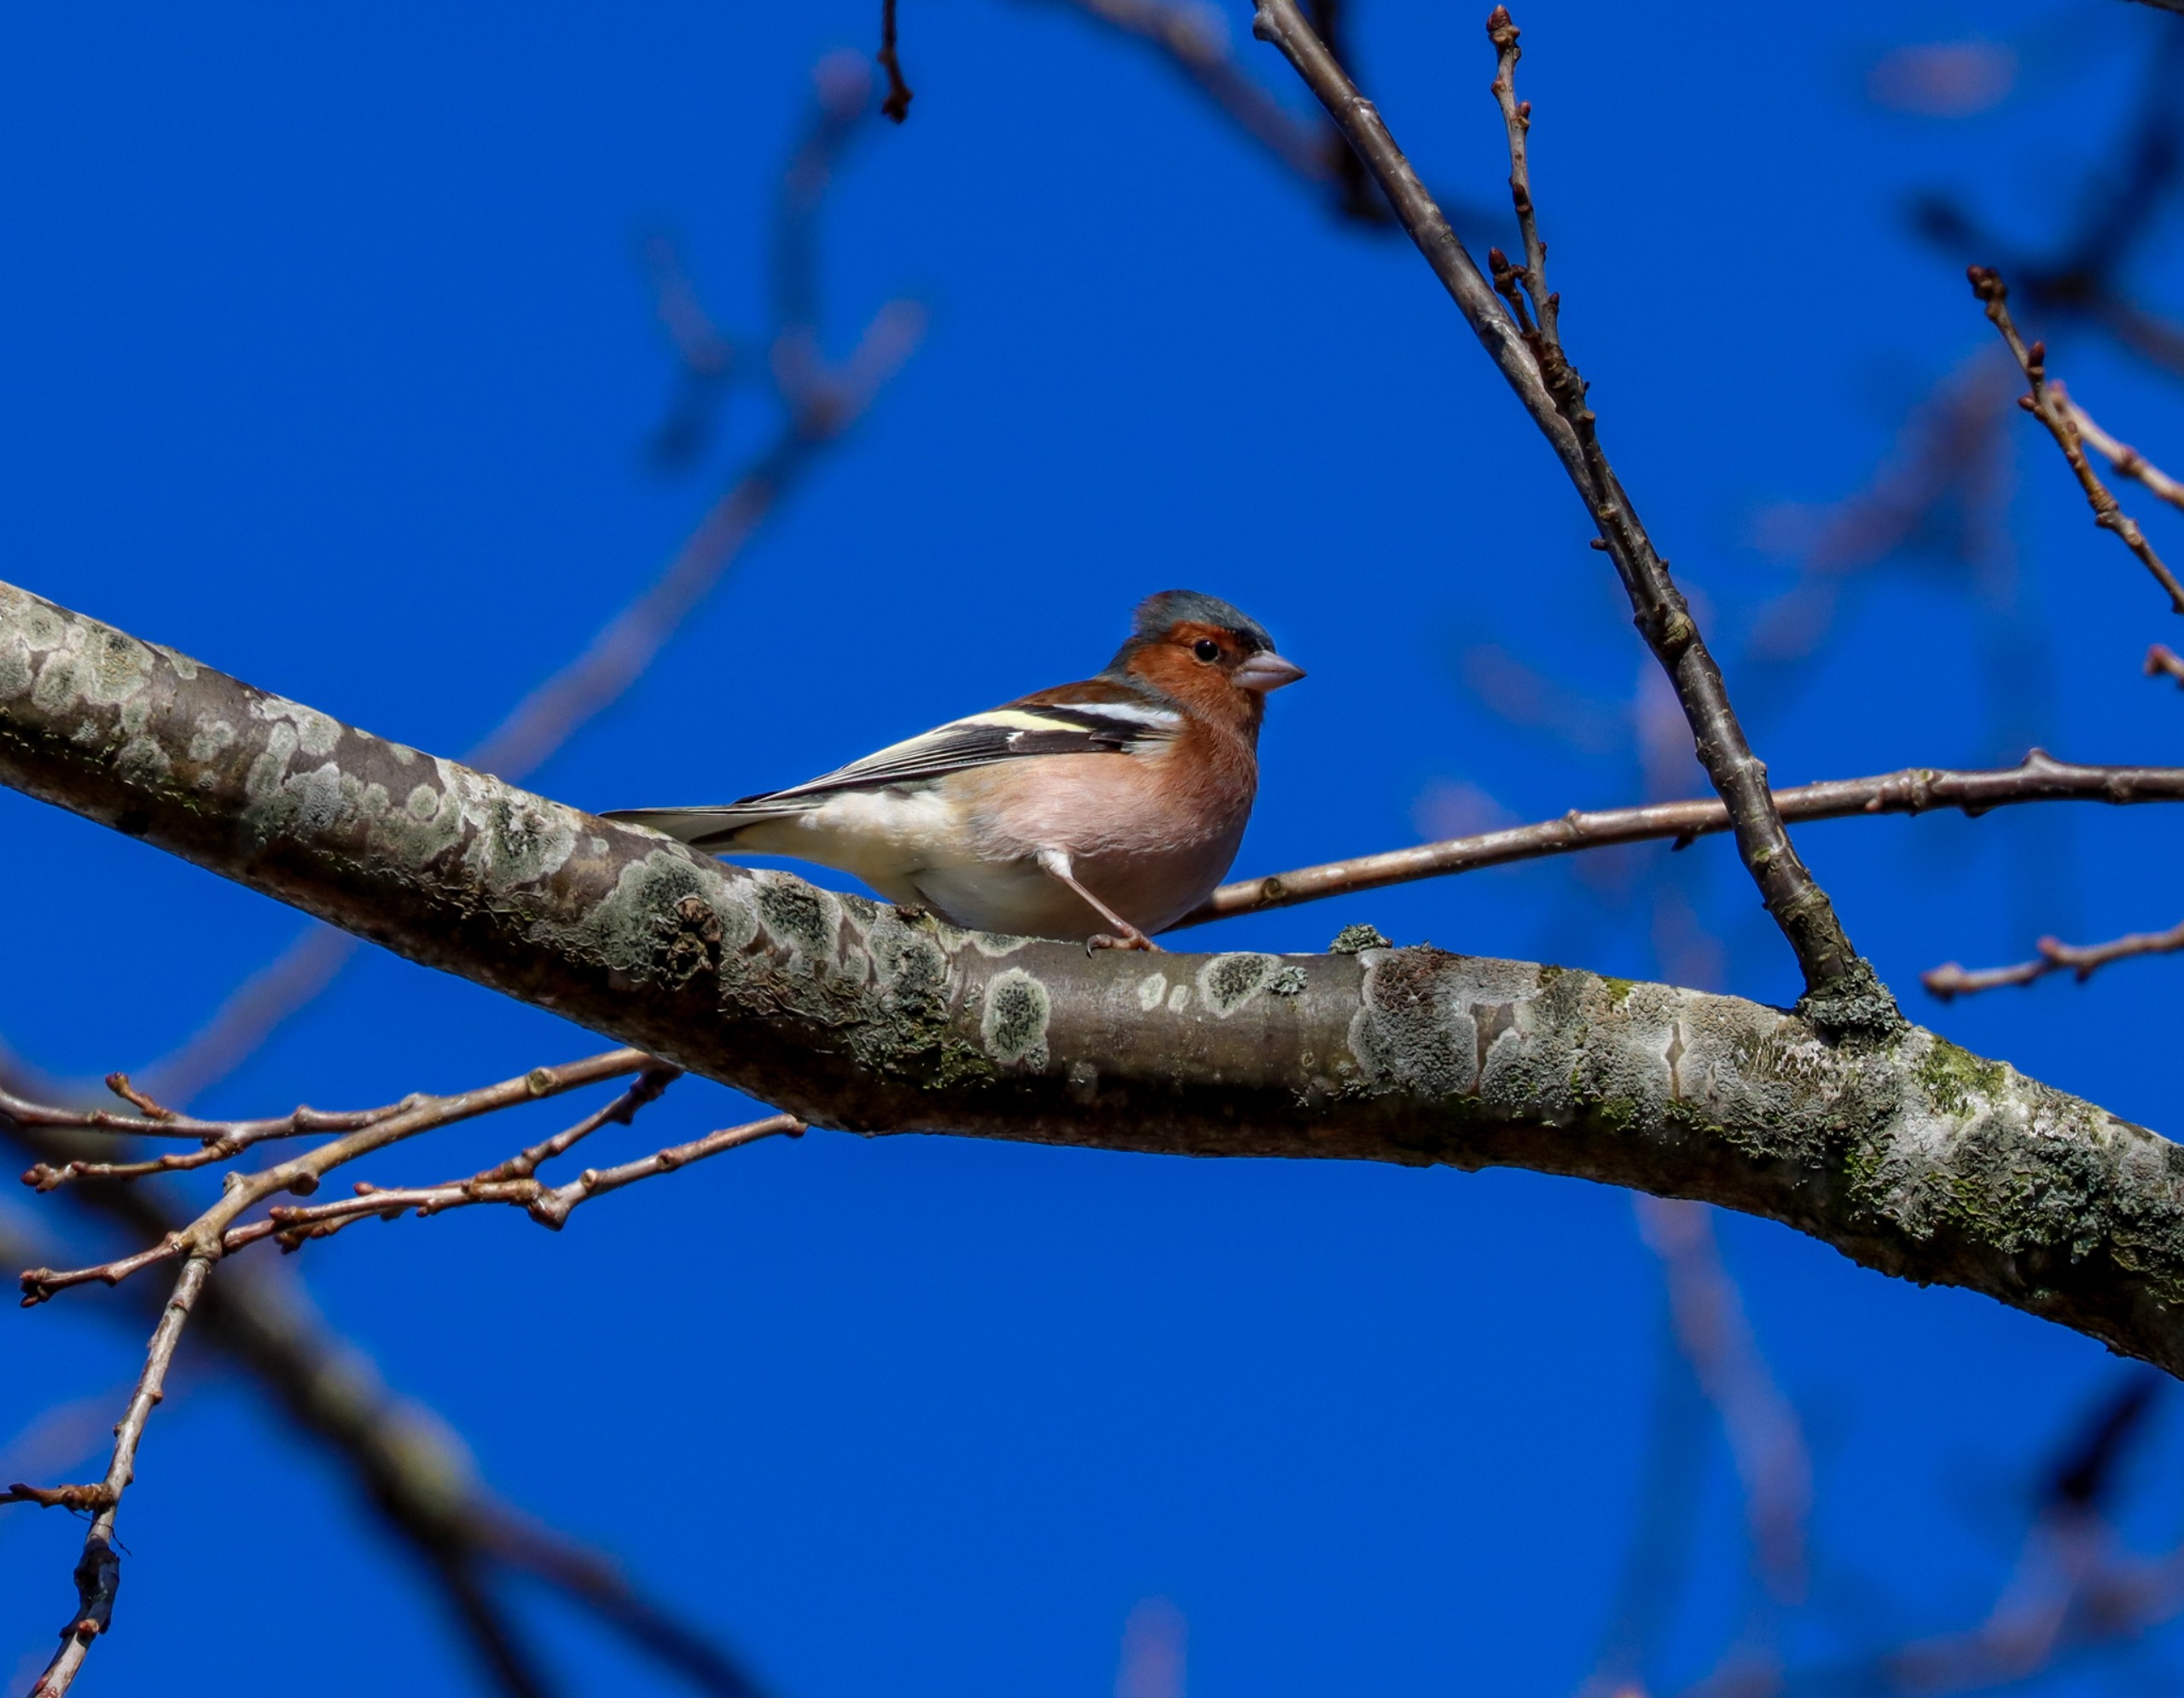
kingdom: Animalia
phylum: Chordata
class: Aves
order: Passeriformes
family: Fringillidae
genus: Fringilla
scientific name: Fringilla coelebs
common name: Bogfinke
